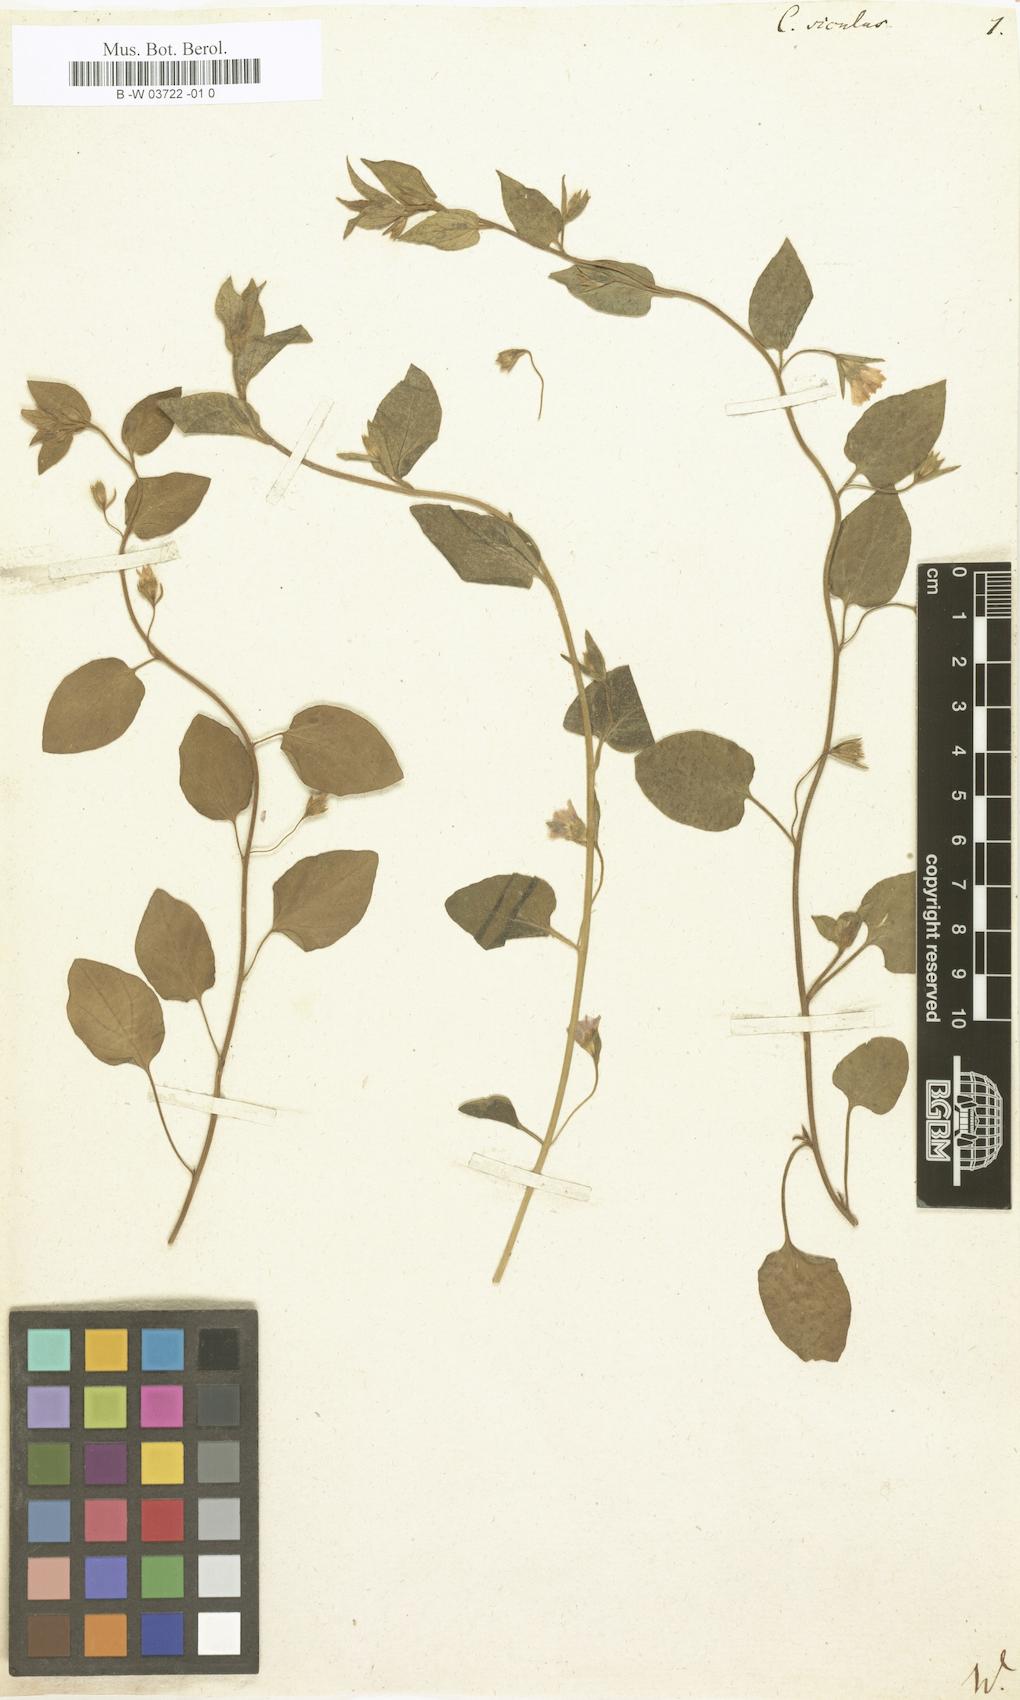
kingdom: Plantae
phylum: Tracheophyta
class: Magnoliopsida
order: Solanales
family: Convolvulaceae
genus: Convolvulus
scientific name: Convolvulus siculus
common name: Small blue-convolvulus
